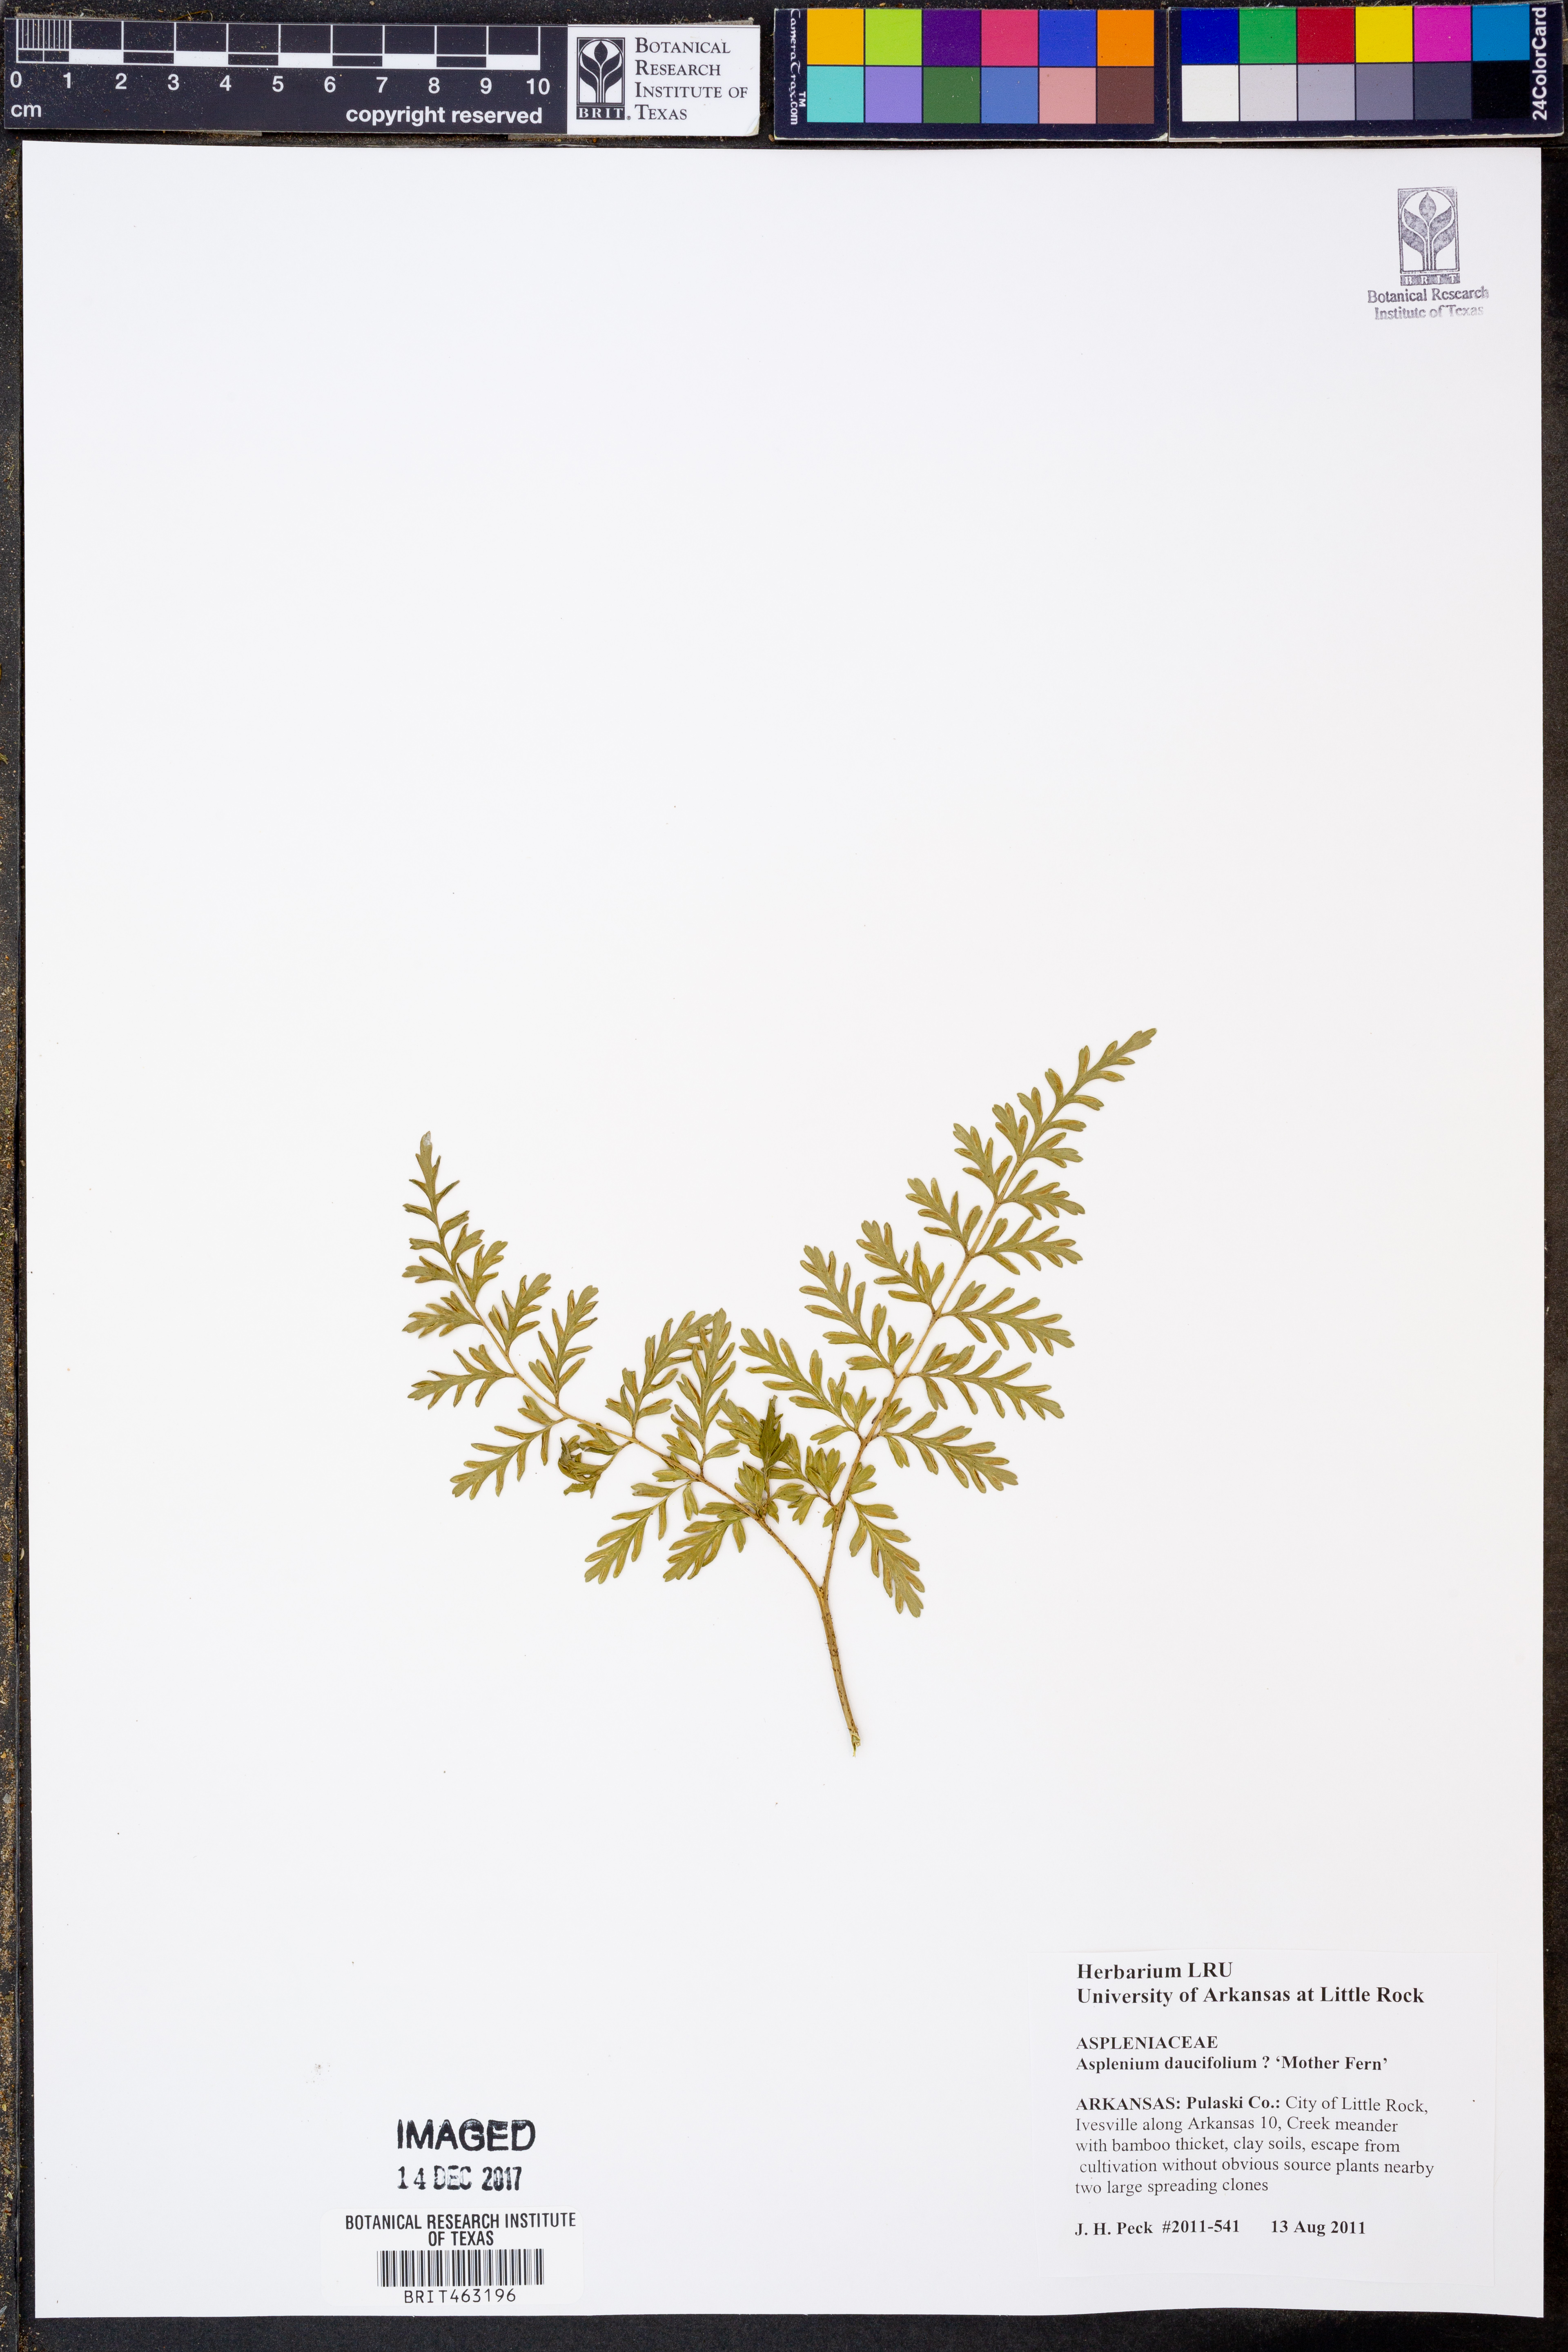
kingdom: Plantae
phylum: Tracheophyta
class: Polypodiopsida
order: Polypodiales
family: Aspleniaceae
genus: Asplenium
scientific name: Asplenium daucifolium
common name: Mauritius spleenwort
